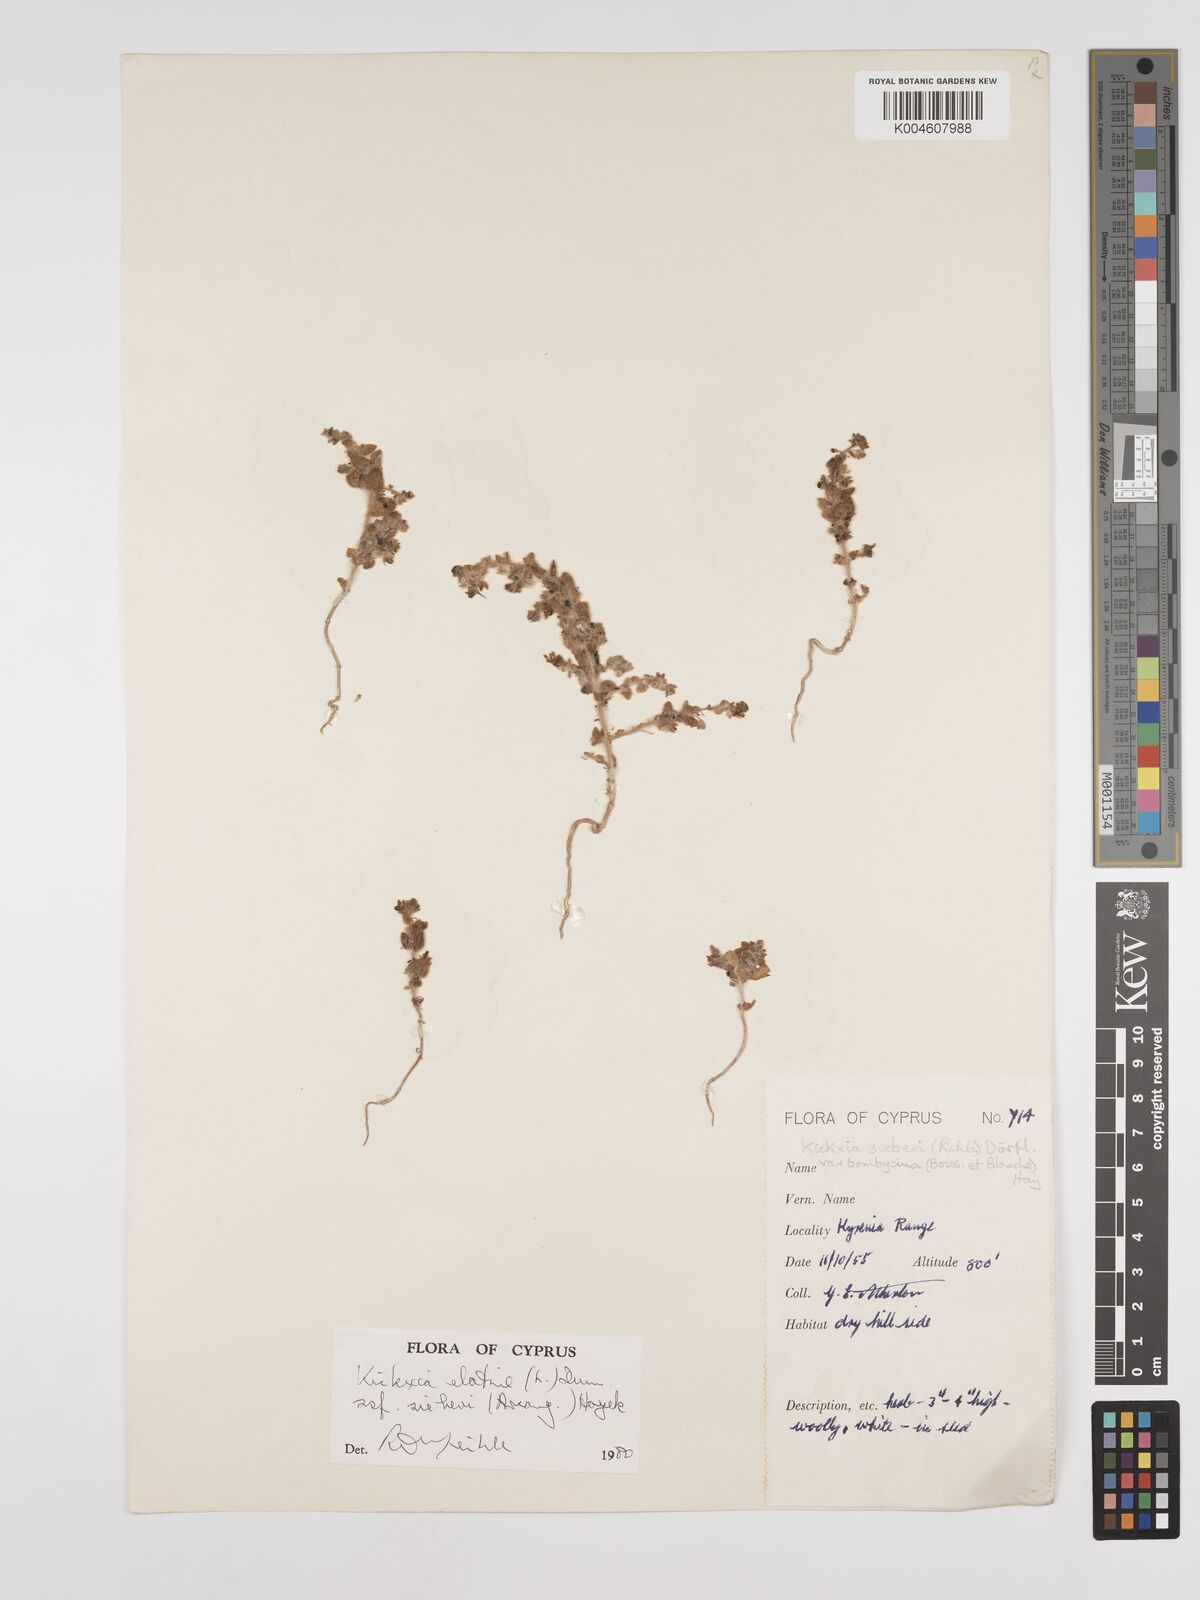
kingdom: Plantae
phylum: Tracheophyta
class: Magnoliopsida
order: Lamiales
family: Plantaginaceae
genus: Kickxia
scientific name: Kickxia elatine
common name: Sharp-leaved fluellen
